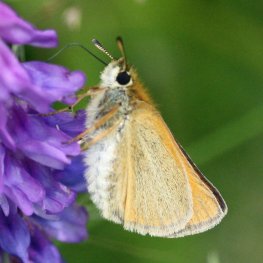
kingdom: Animalia
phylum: Arthropoda
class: Insecta
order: Lepidoptera
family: Hesperiidae
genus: Thymelicus
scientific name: Thymelicus lineola
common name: European Skipper
